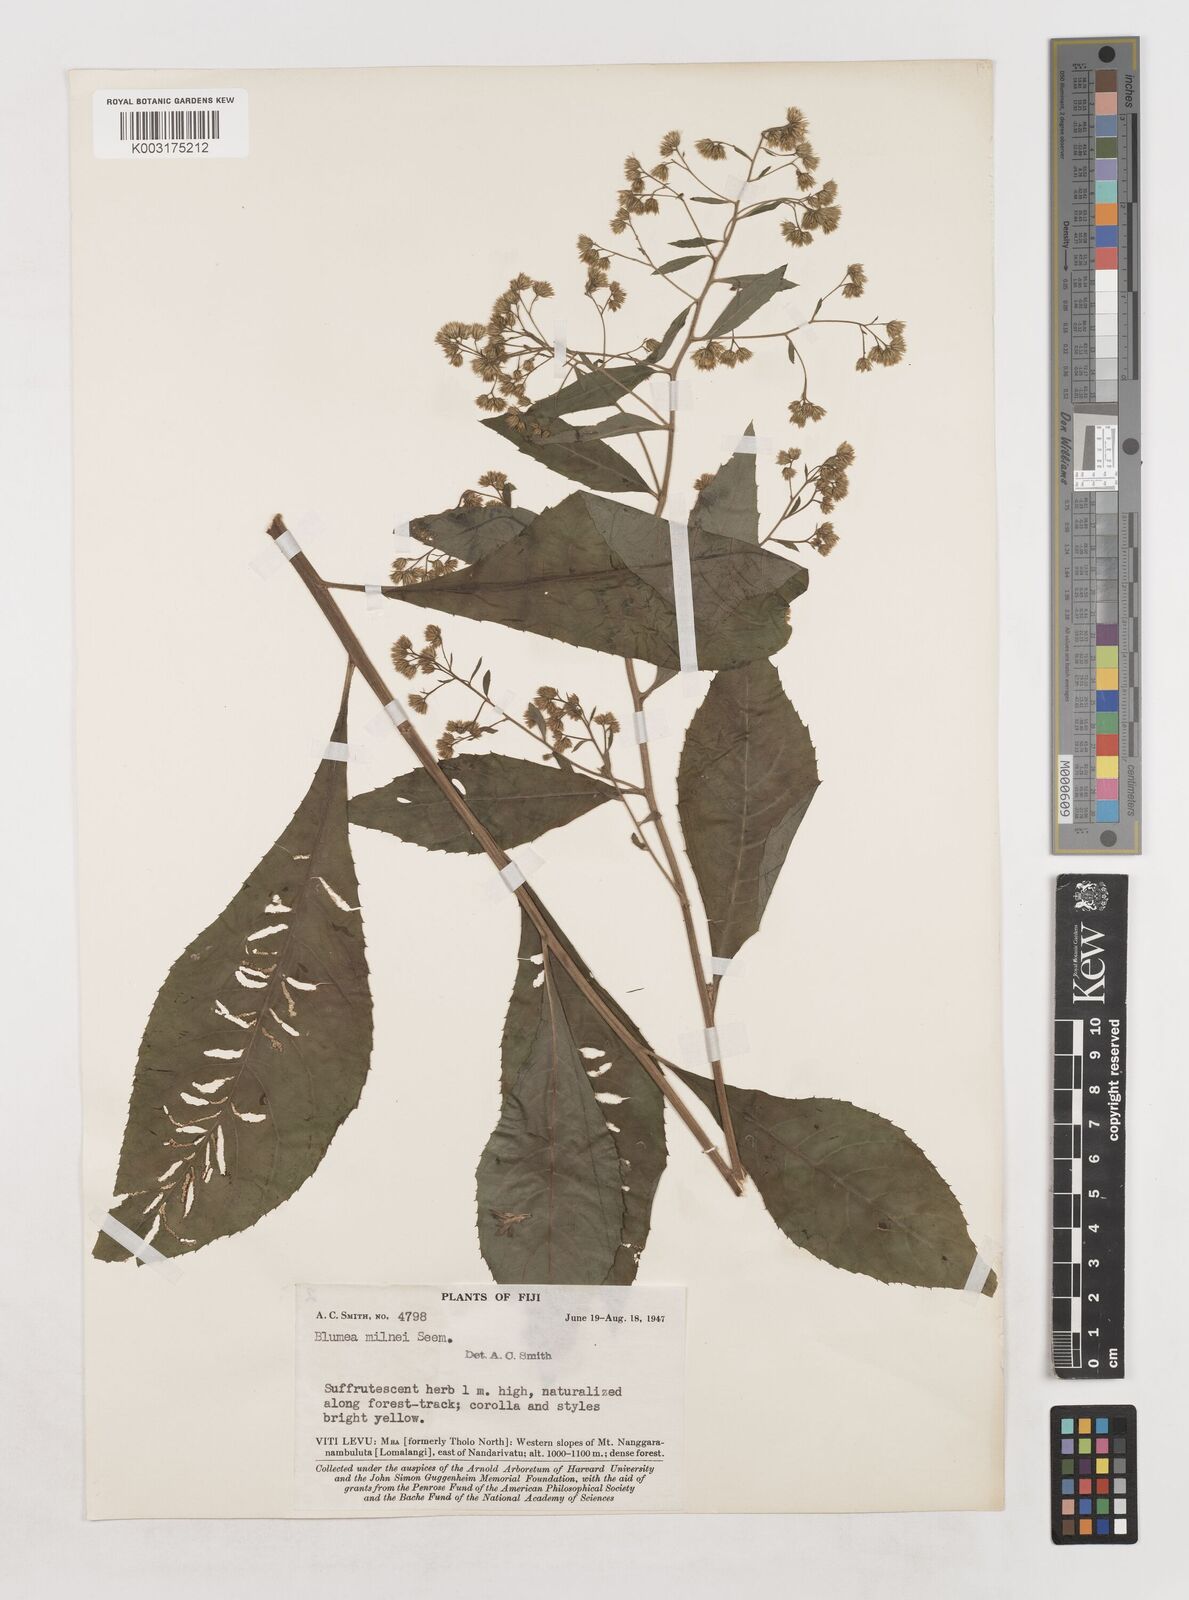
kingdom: Plantae
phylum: Tracheophyta
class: Magnoliopsida
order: Asterales
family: Asteraceae
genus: Blumea
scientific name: Blumea milnei
